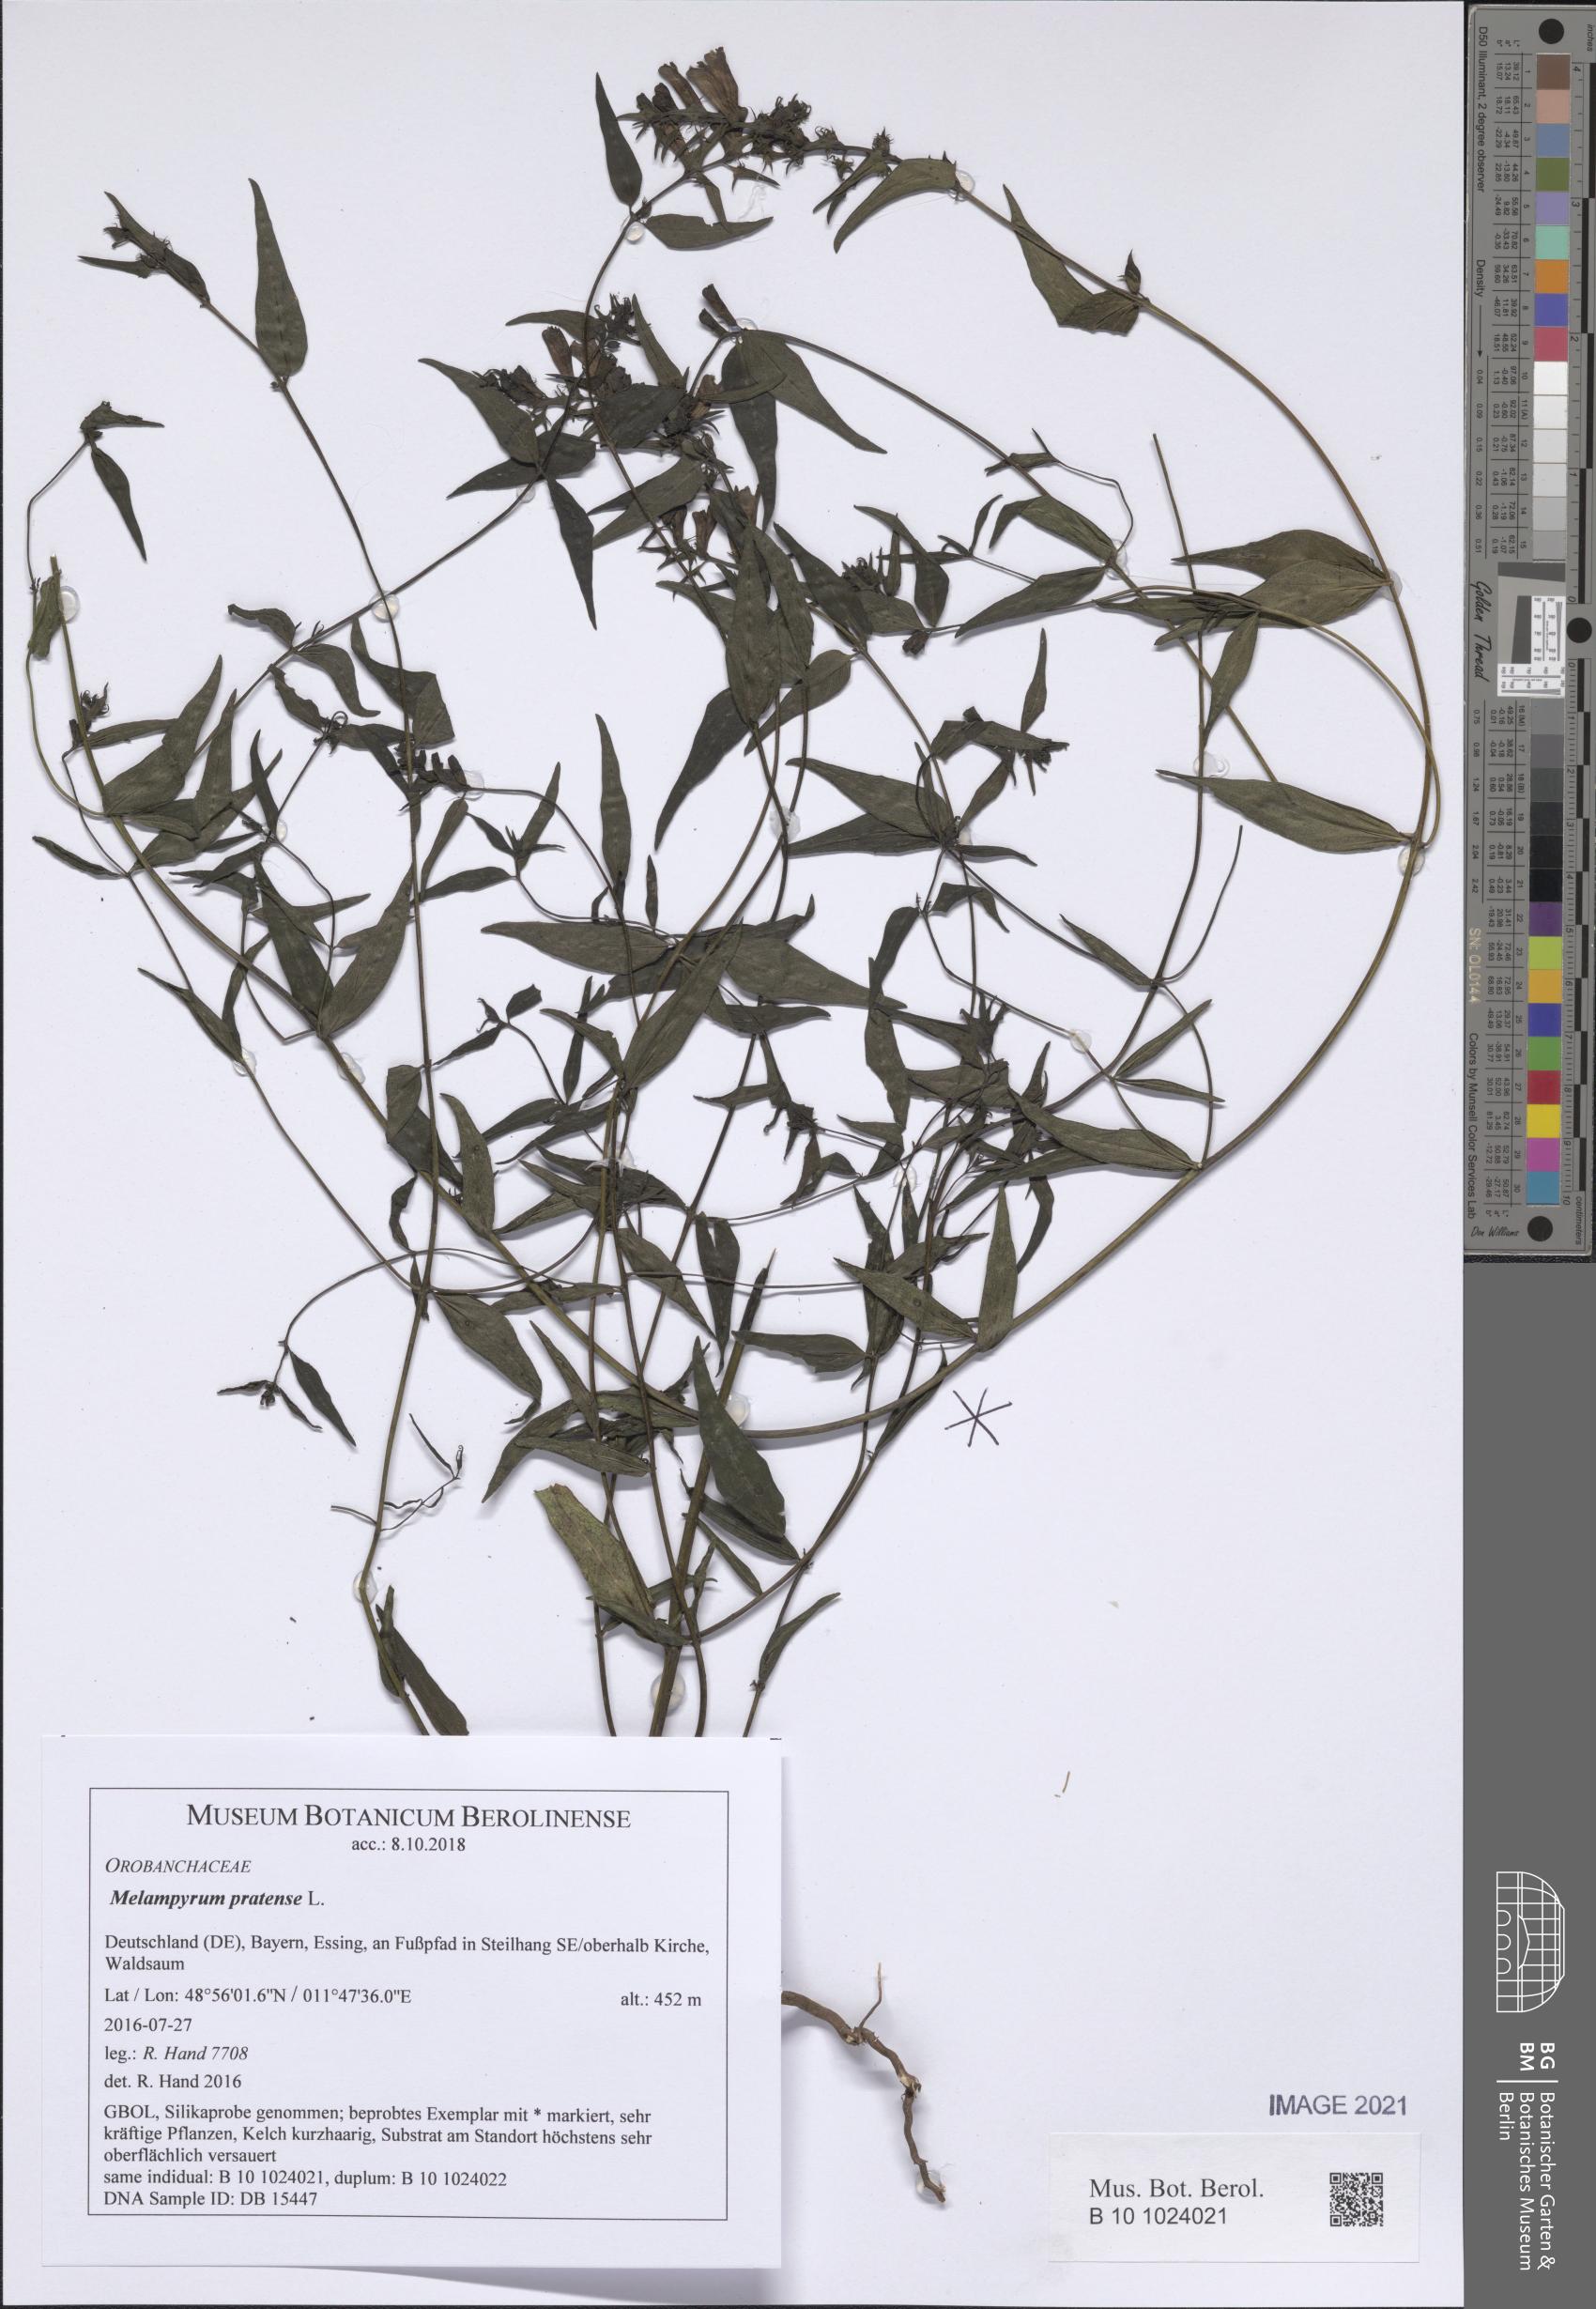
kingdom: Plantae
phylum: Tracheophyta
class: Magnoliopsida
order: Lamiales
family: Orobanchaceae
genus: Melampyrum
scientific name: Melampyrum pratense
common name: Common cow-wheat
